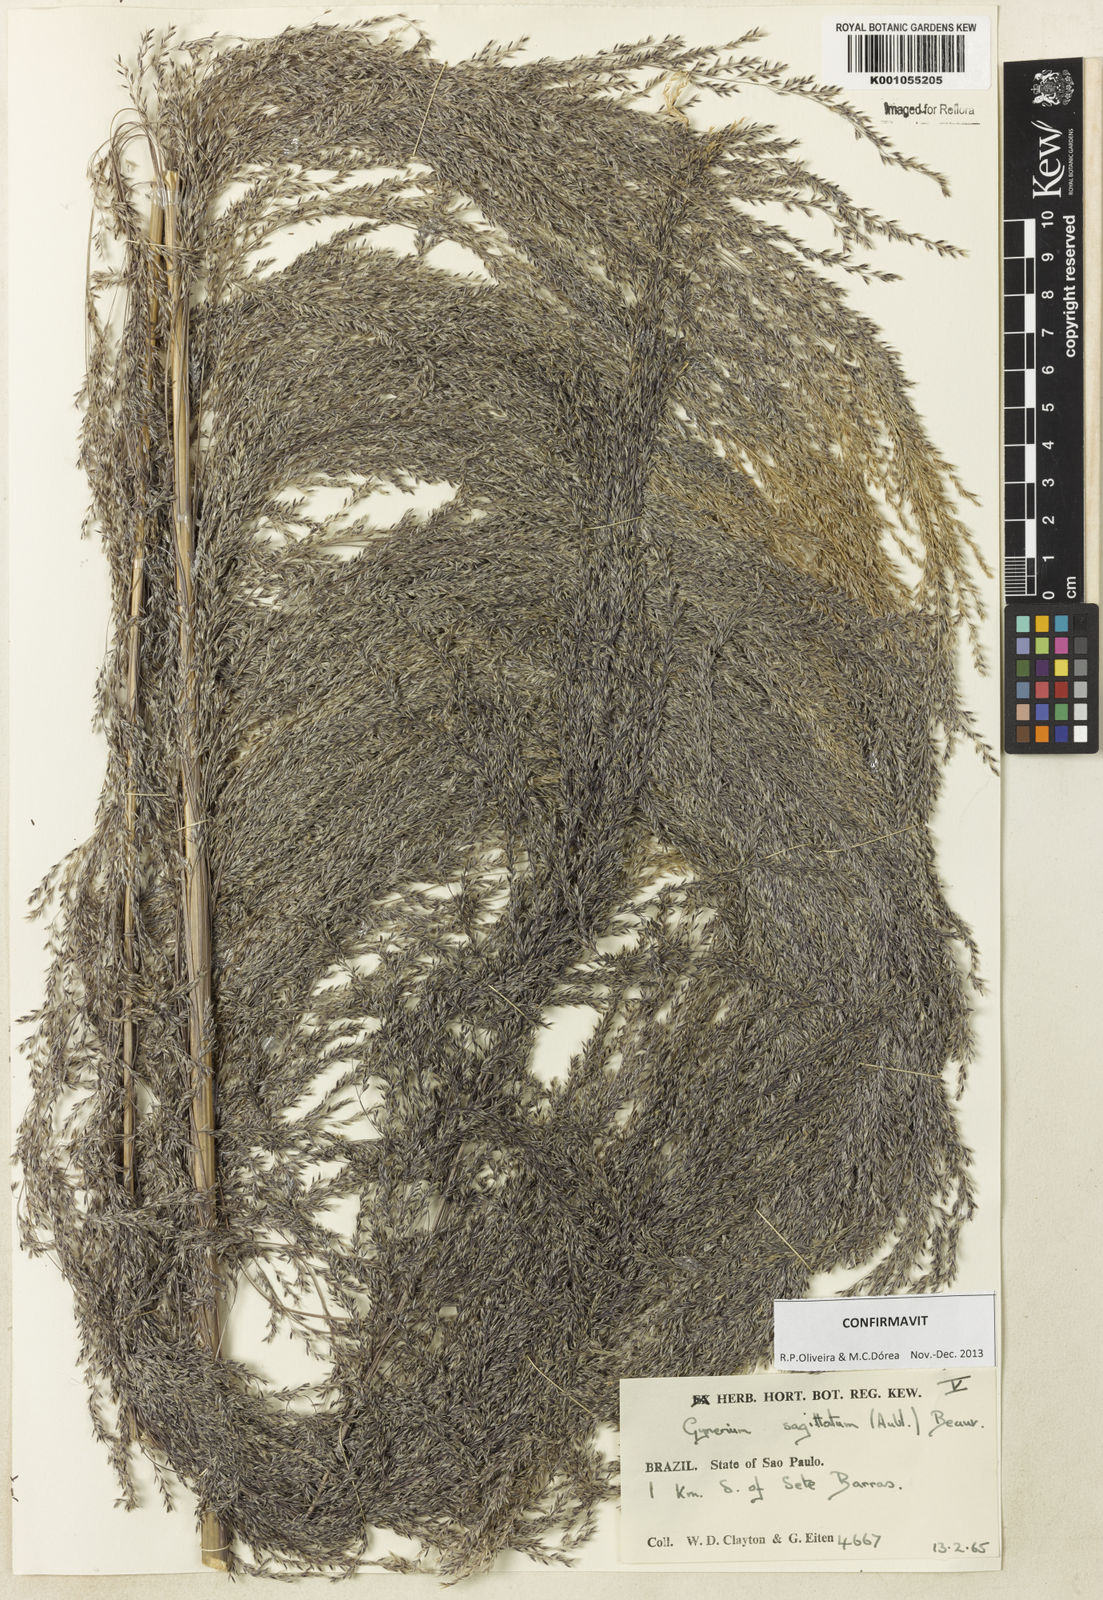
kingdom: Plantae
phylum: Tracheophyta
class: Liliopsida
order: Poales
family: Poaceae
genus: Gynerium
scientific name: Gynerium sagittatum
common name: Wild cane
